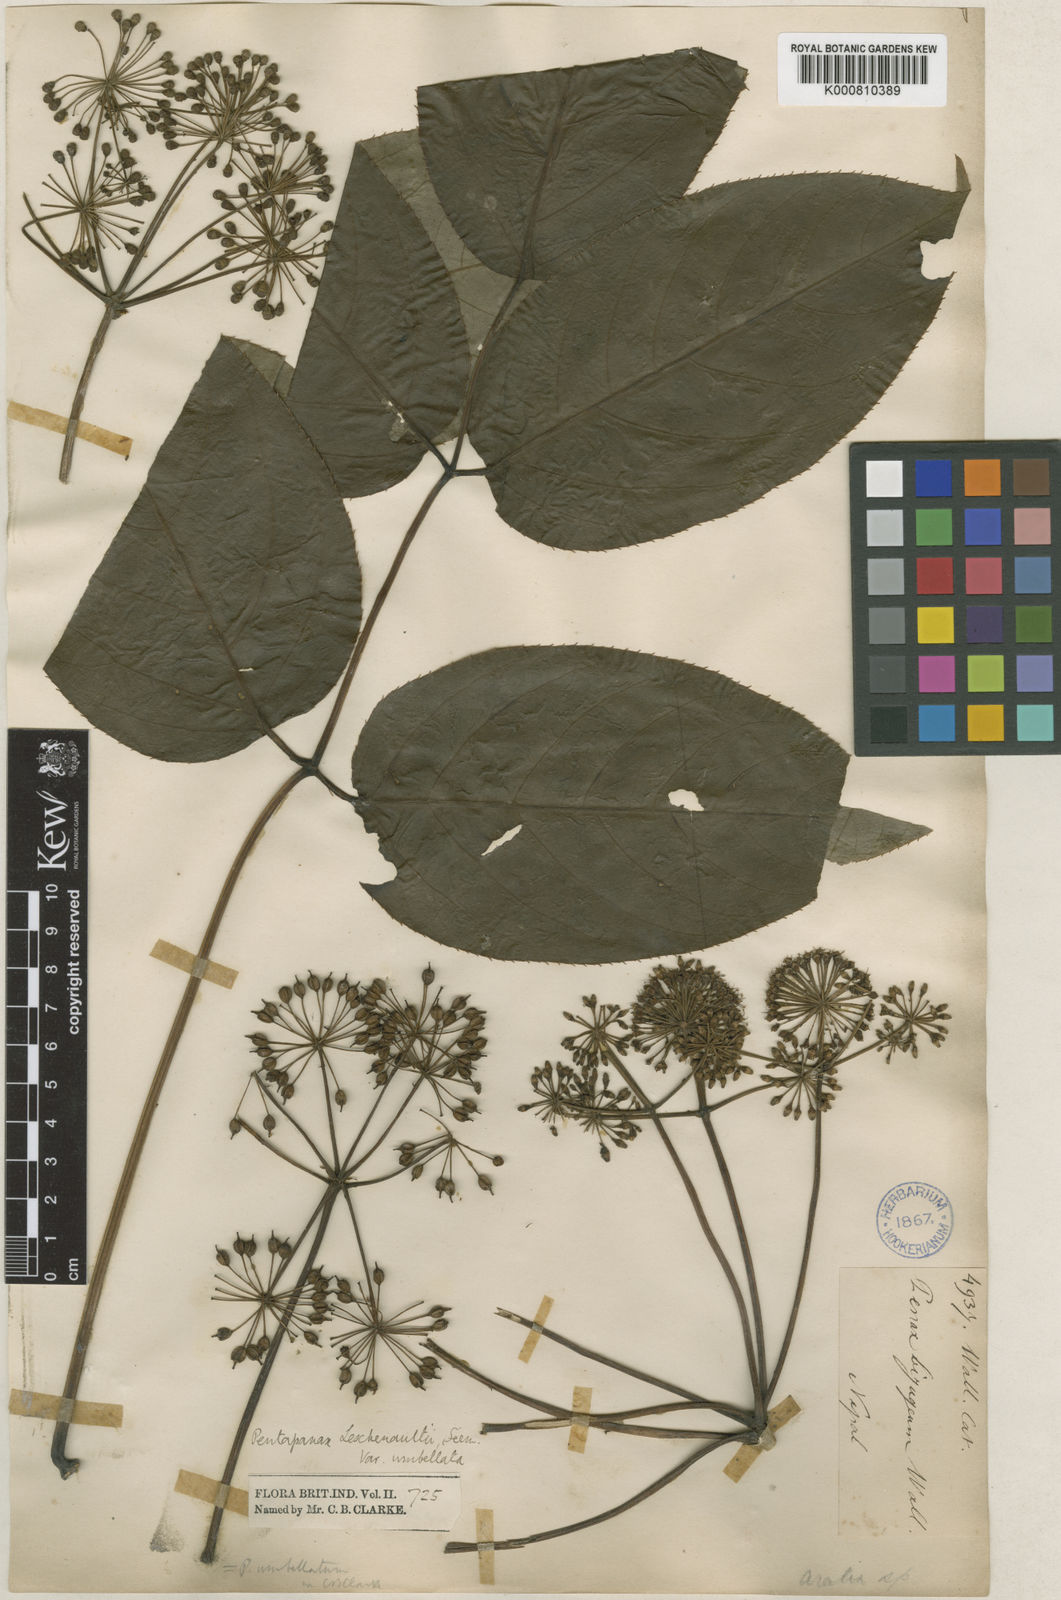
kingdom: Plantae
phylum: Tracheophyta
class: Magnoliopsida
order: Apiales
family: Araliaceae
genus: Aralia
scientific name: Aralia leschenaultii
